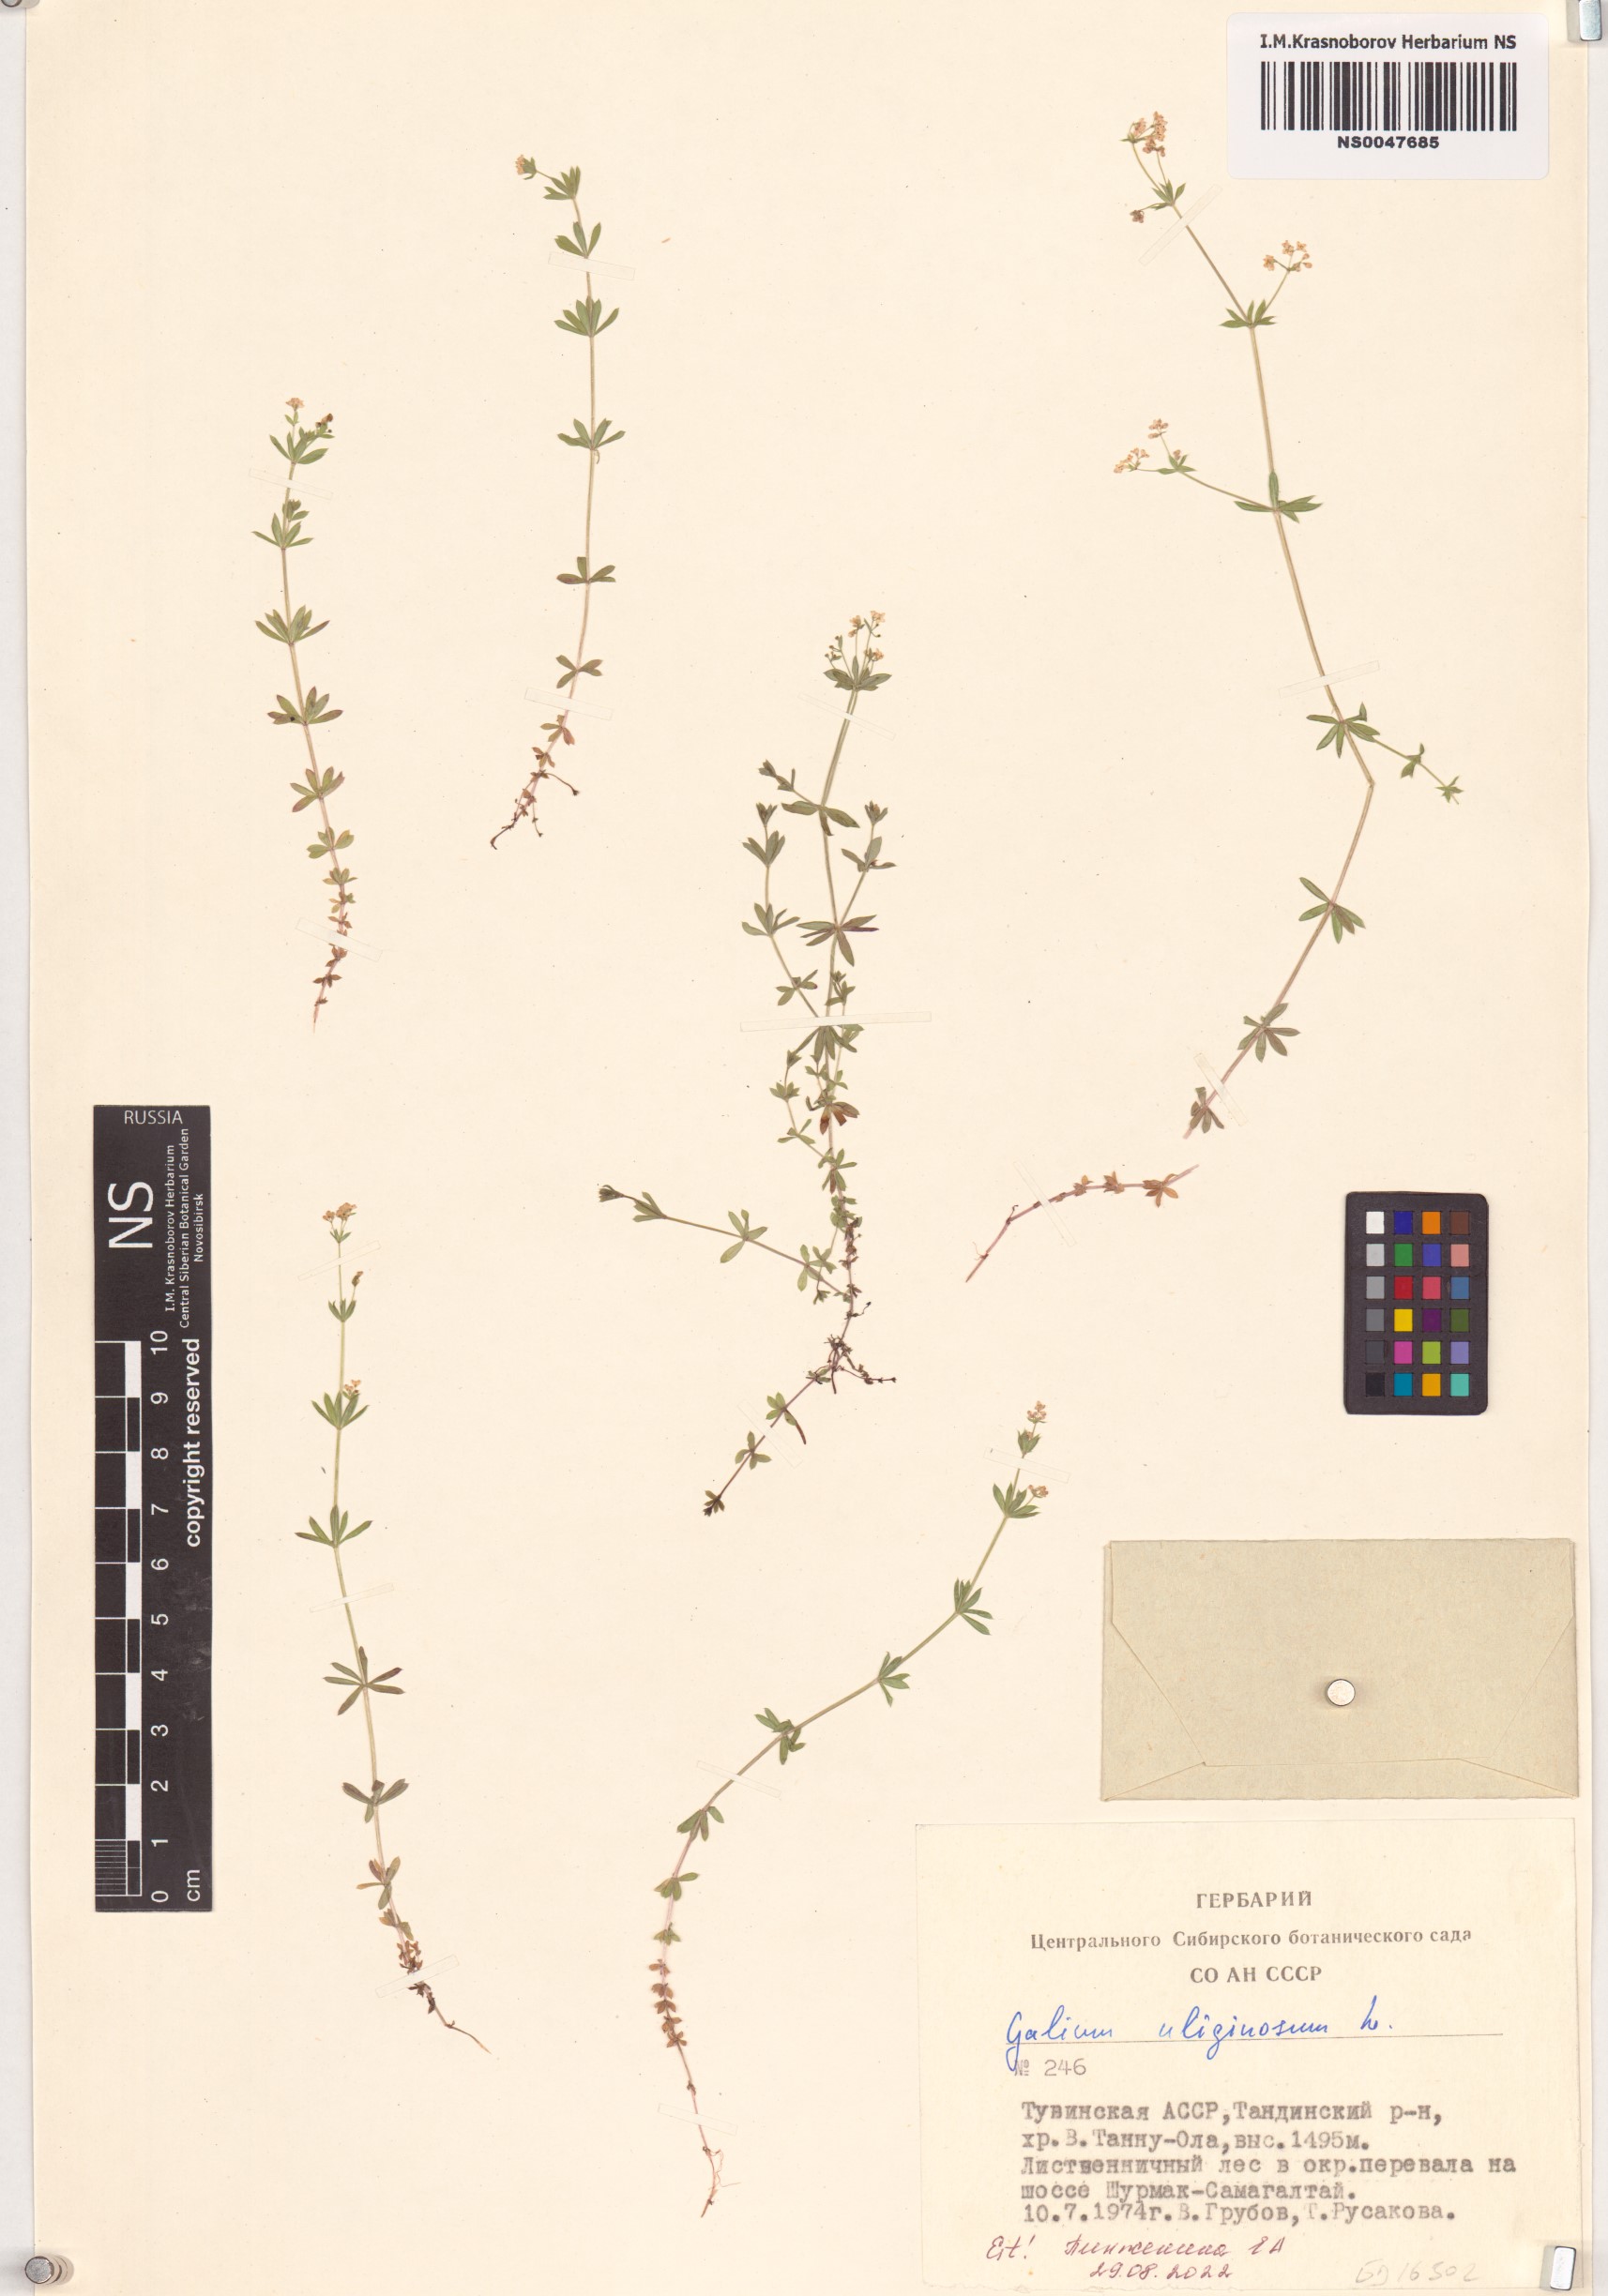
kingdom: Plantae
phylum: Tracheophyta
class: Magnoliopsida
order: Gentianales
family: Rubiaceae
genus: Galium
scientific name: Galium uliginosum
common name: Fen bedstraw
